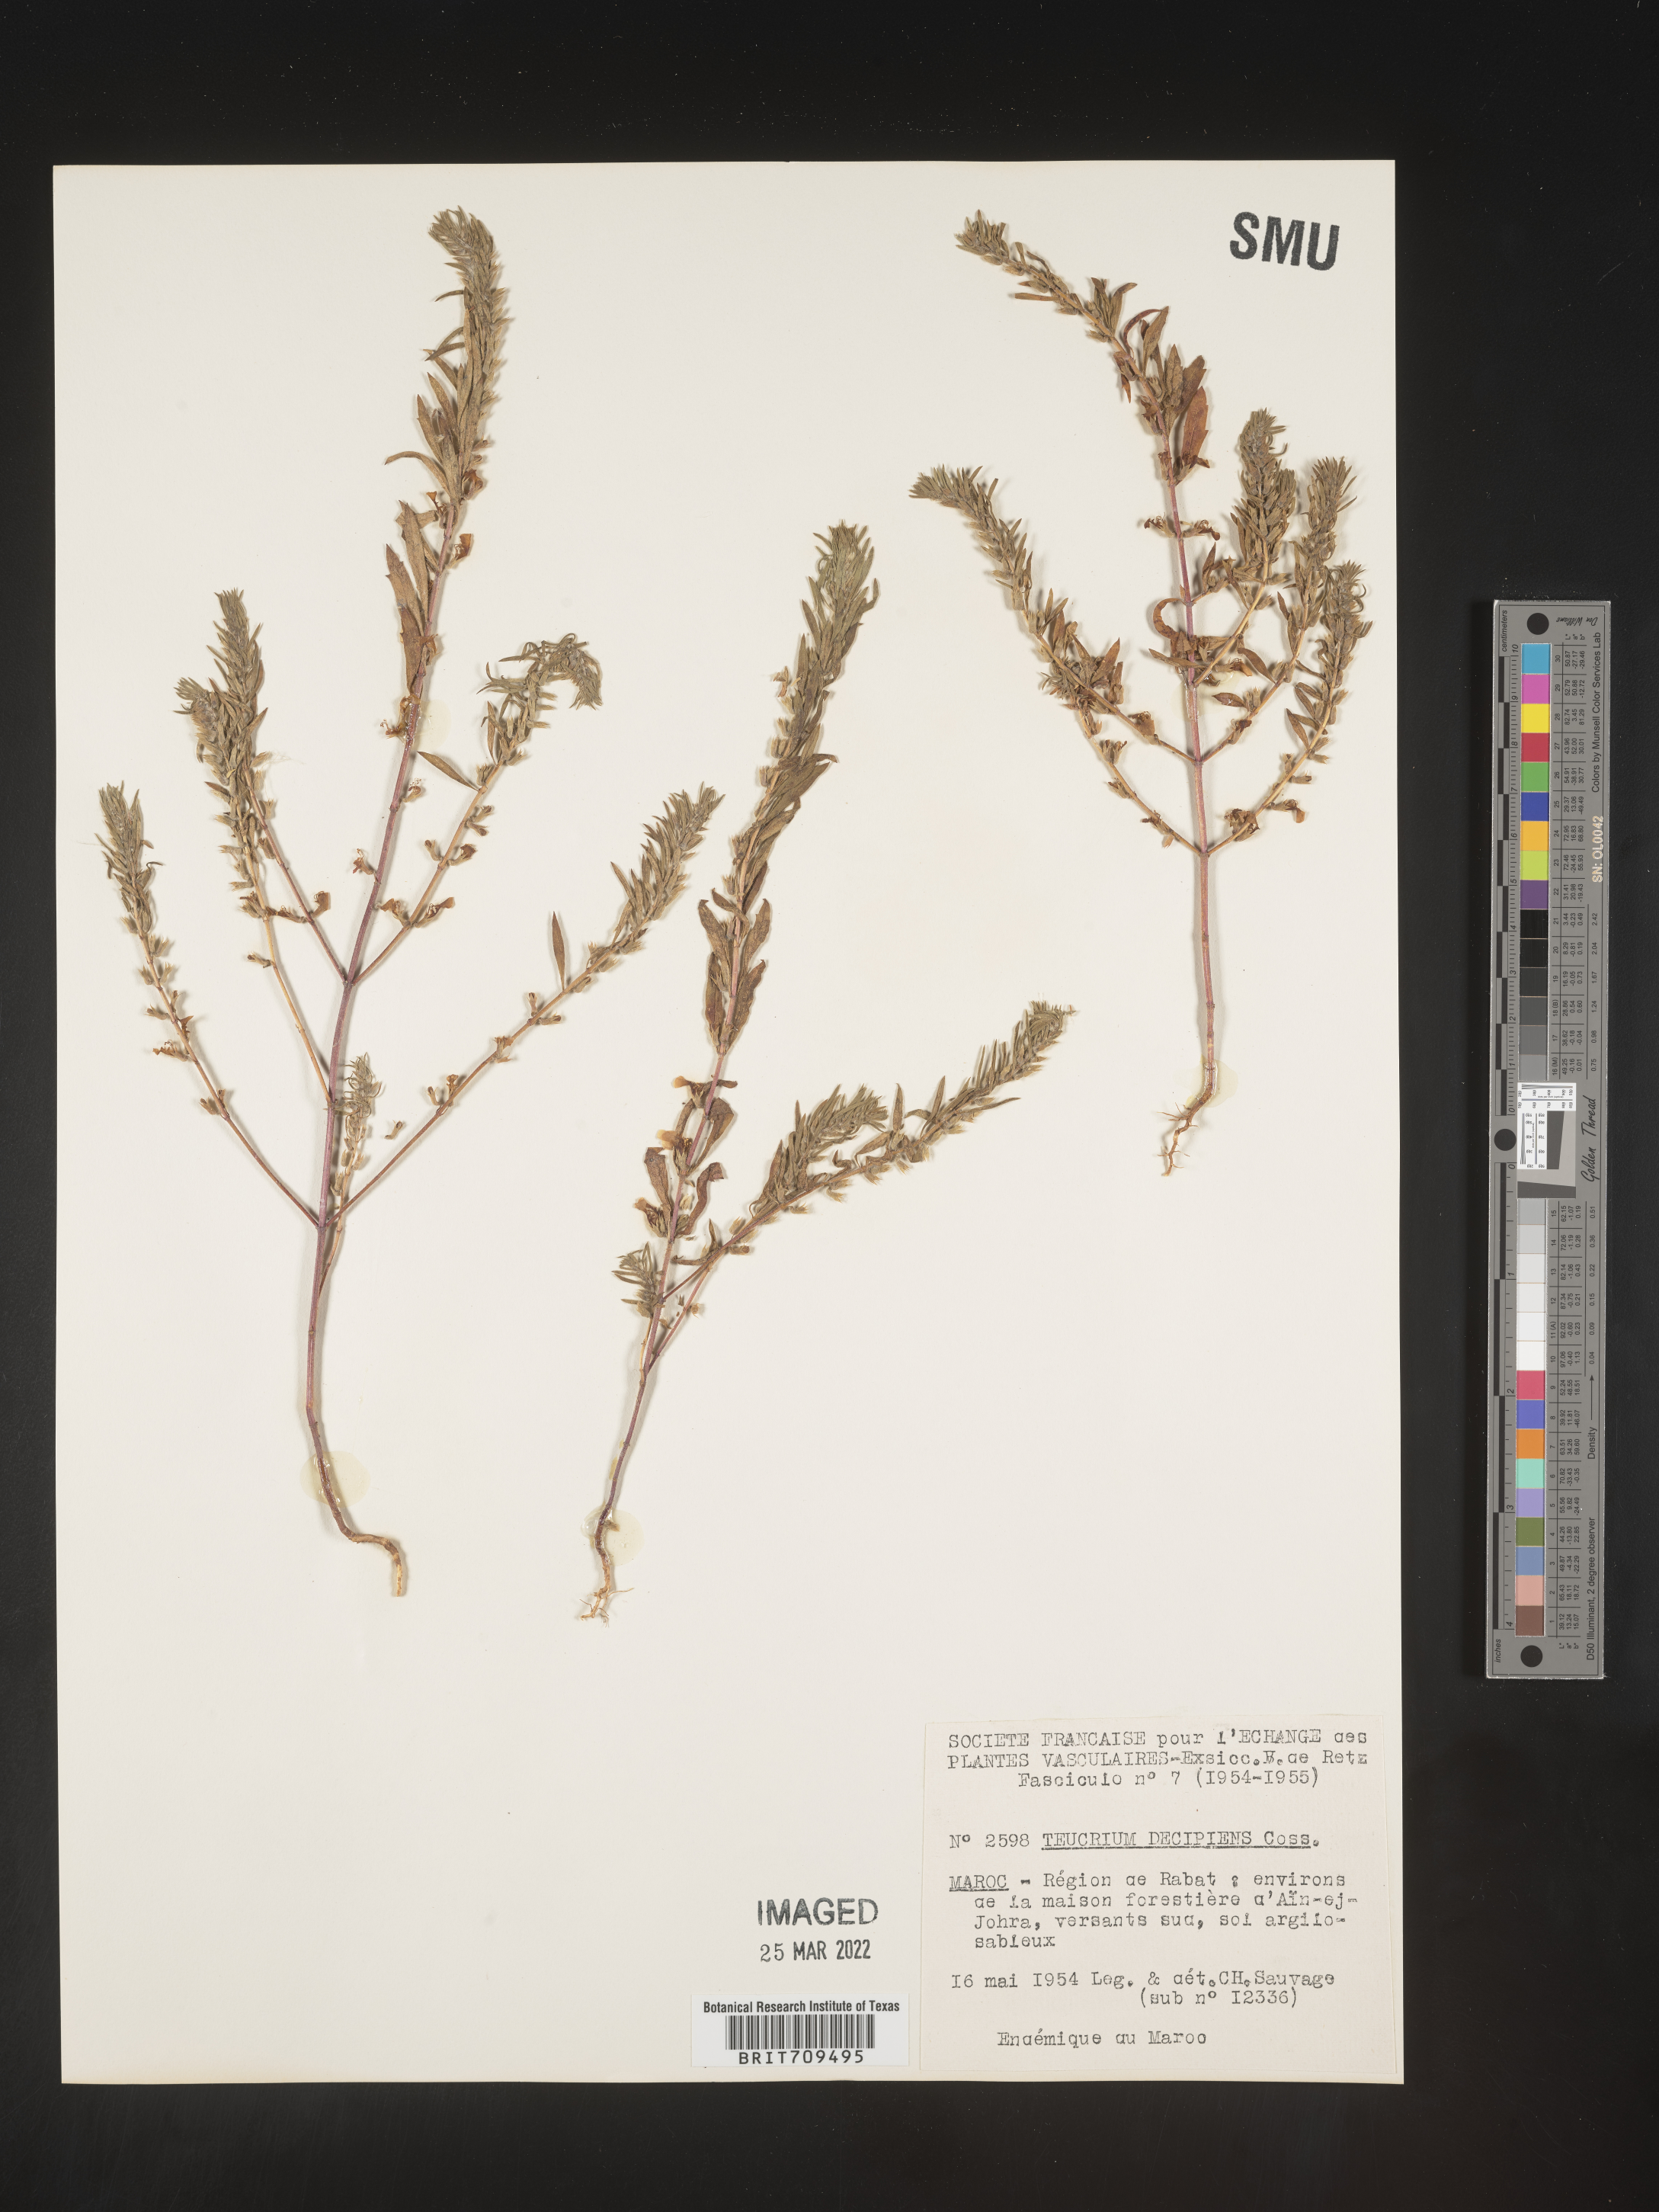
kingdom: Plantae
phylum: Tracheophyta
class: Magnoliopsida
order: Lamiales
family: Lamiaceae
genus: Teucrium
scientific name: Teucrium
